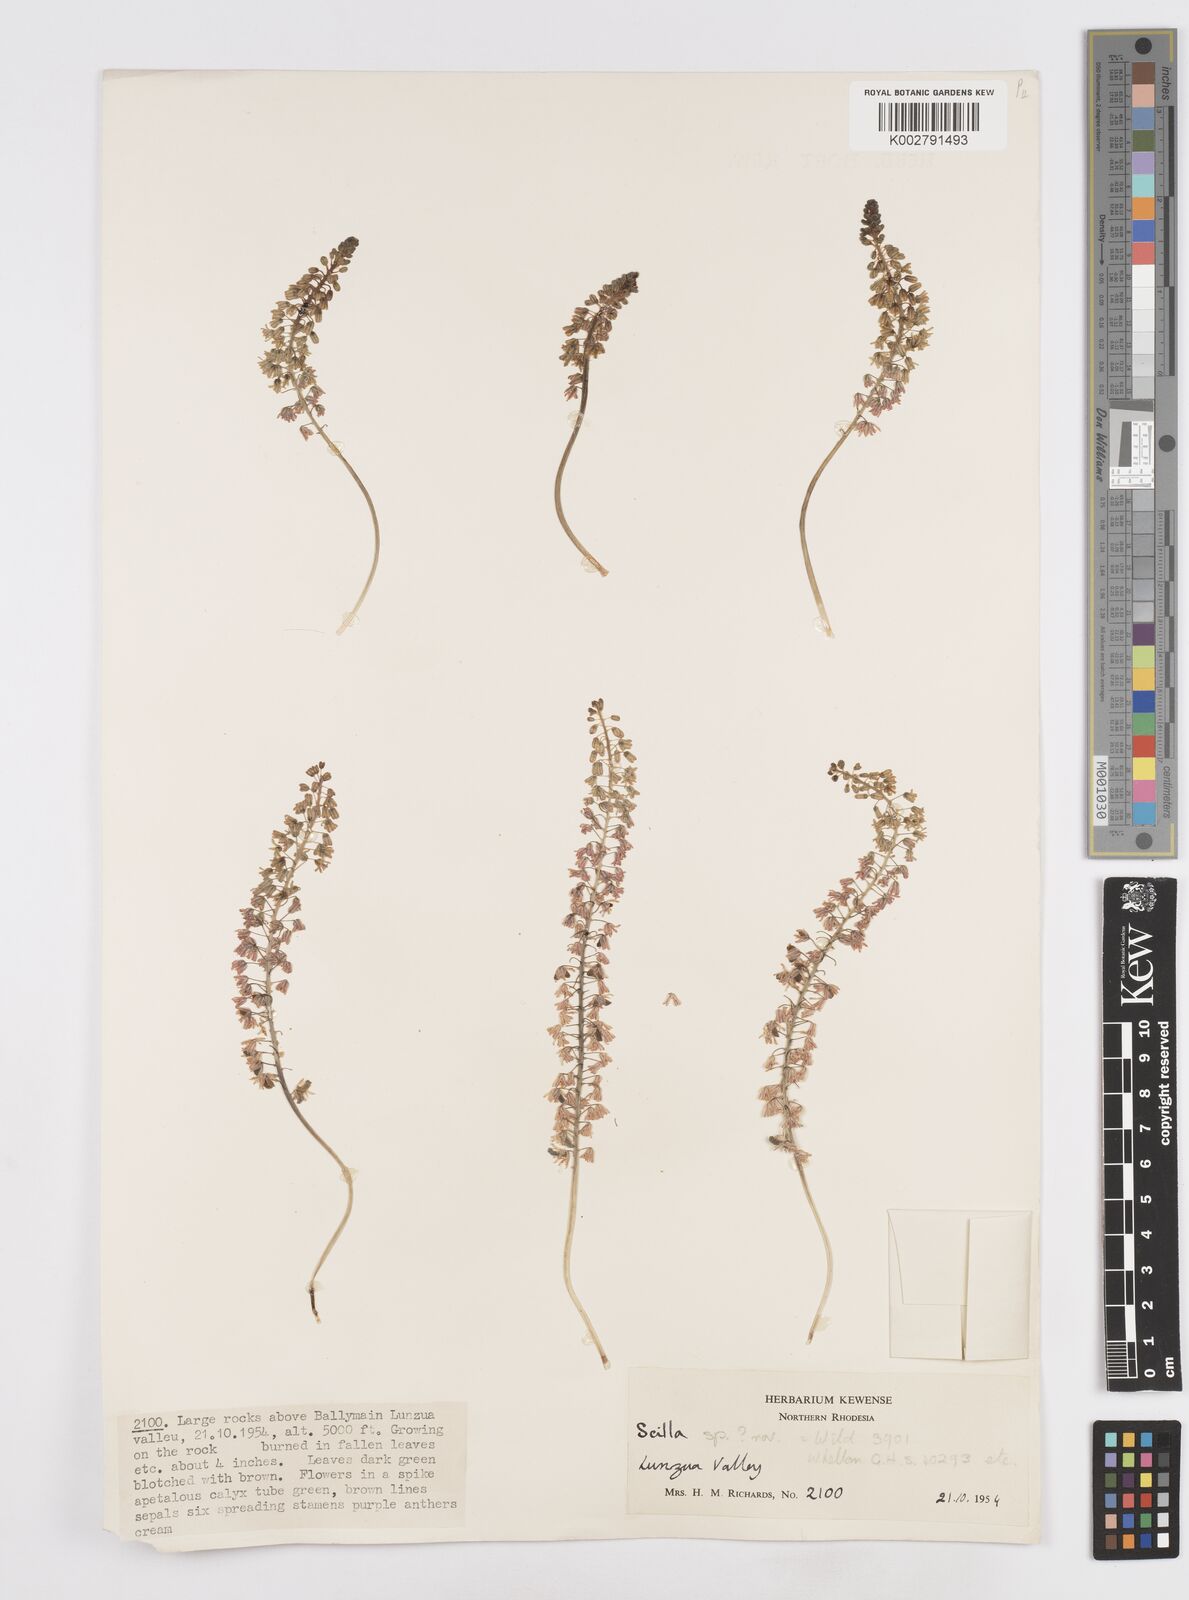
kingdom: Plantae
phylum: Tracheophyta
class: Liliopsida
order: Asparagales
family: Asparagaceae
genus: Scilla
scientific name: Scilla
